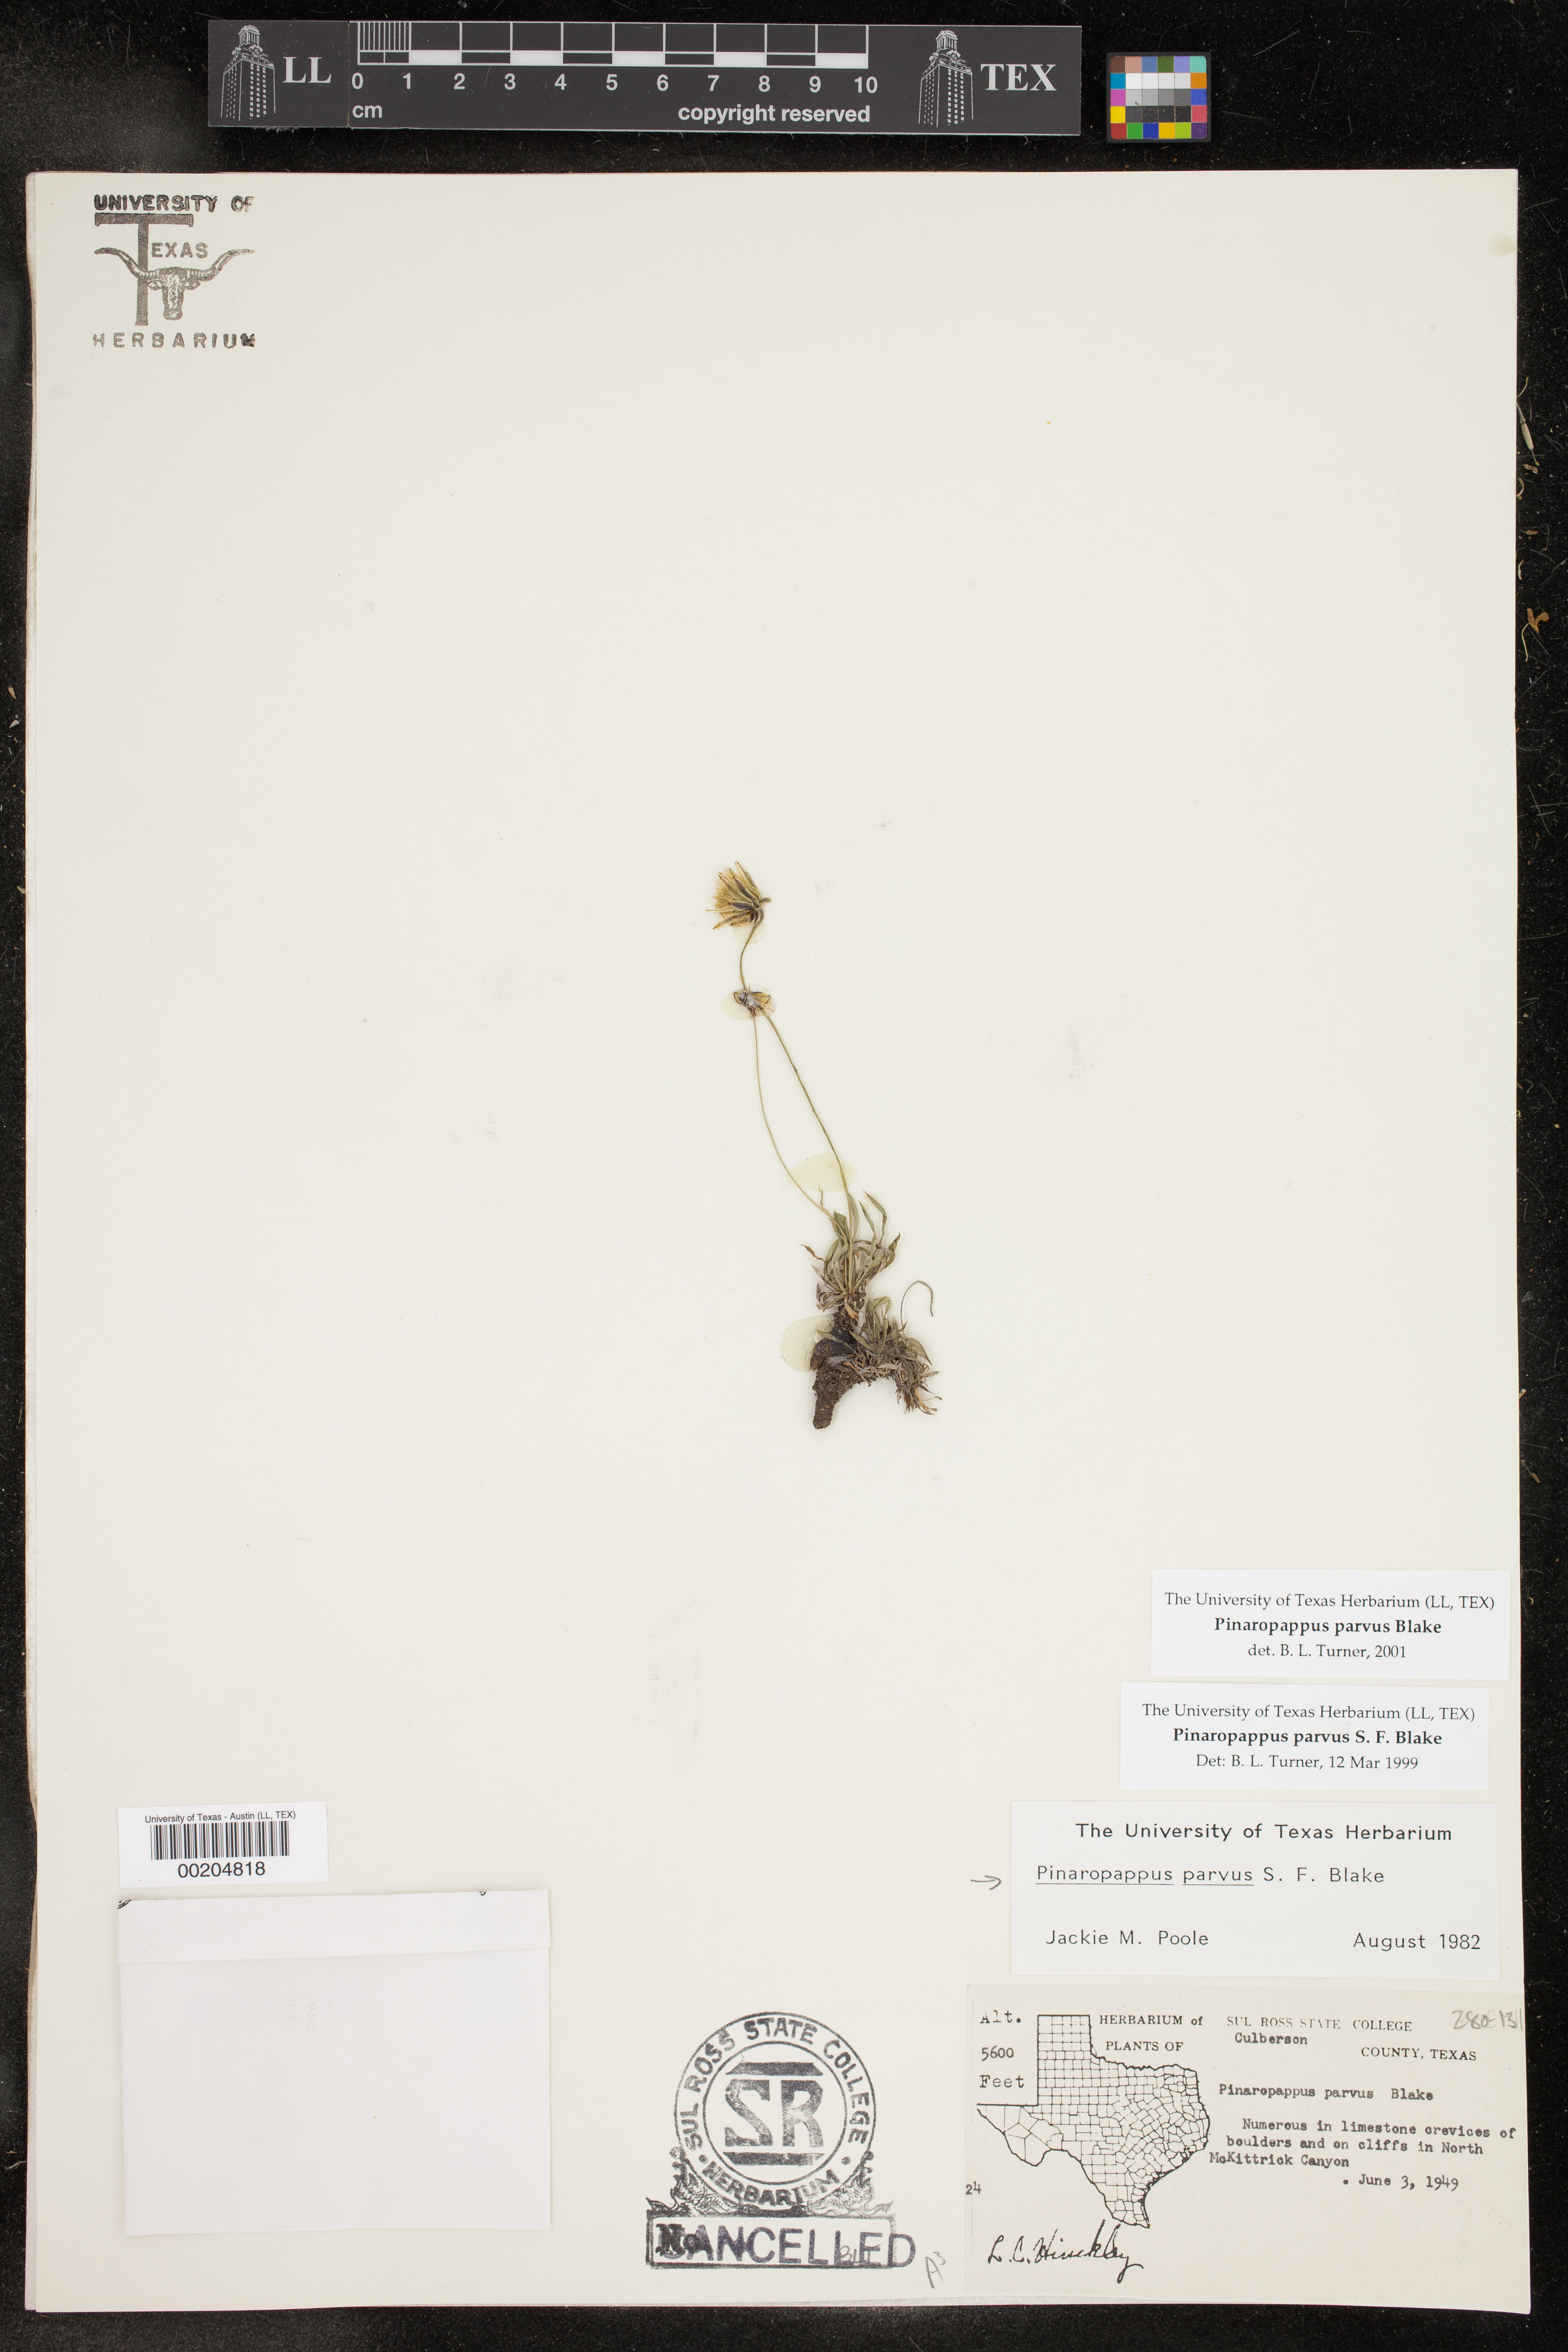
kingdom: Plantae
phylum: Tracheophyta
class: Magnoliopsida
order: Asterales
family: Asteraceae
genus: Pinaropappus
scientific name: Pinaropappus parvus
